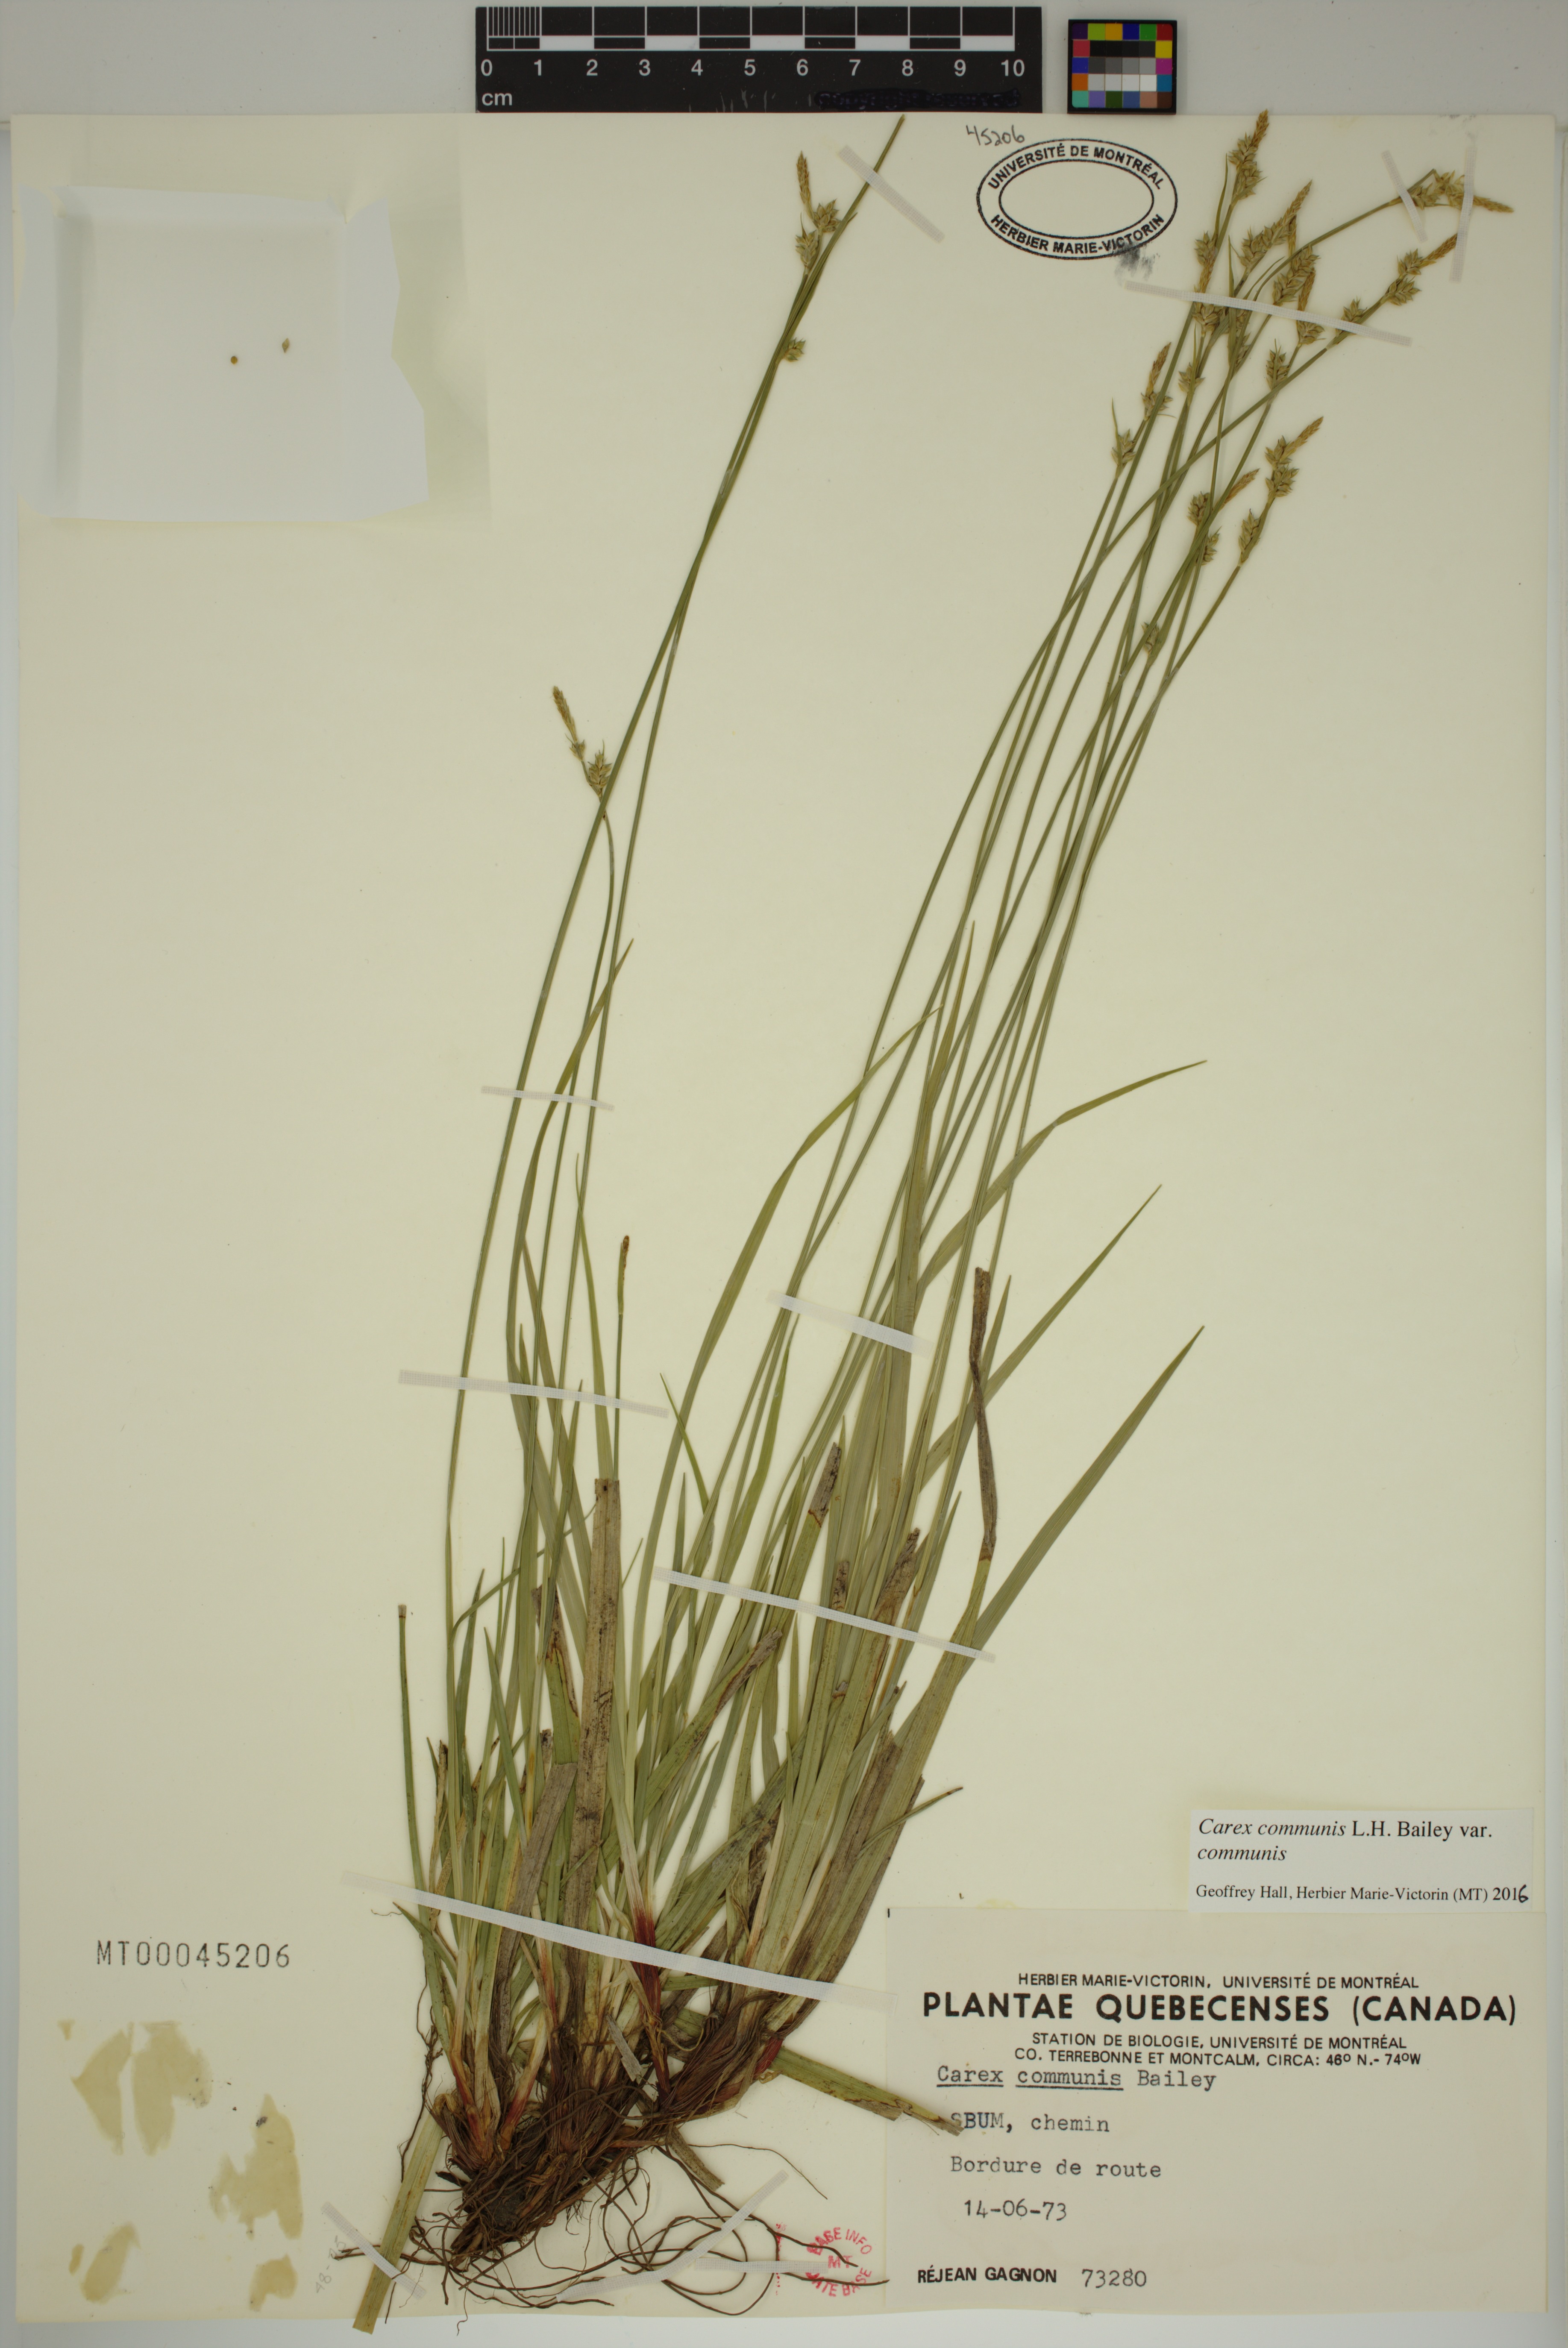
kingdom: Plantae
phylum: Tracheophyta
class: Liliopsida
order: Poales
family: Cyperaceae
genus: Carex
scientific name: Carex communis
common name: Colonial oak sedge
